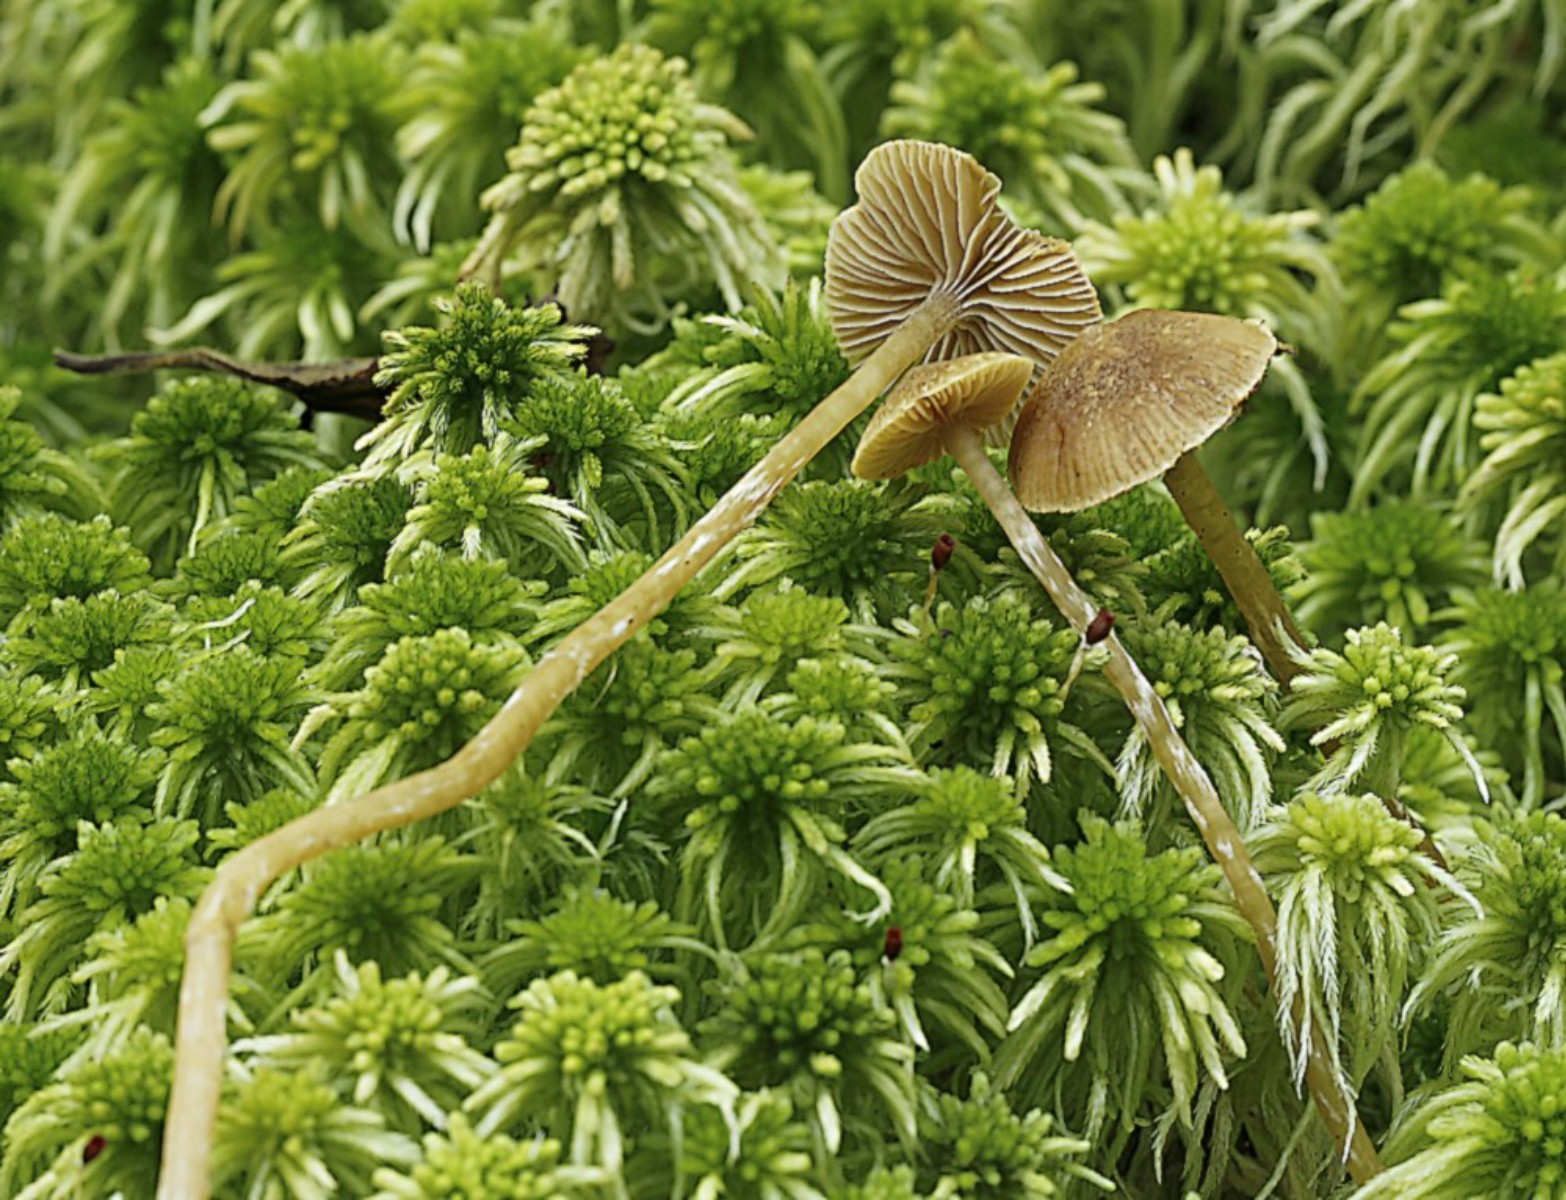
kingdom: Fungi
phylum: Basidiomycota
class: Agaricomycetes
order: Agaricales
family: Hymenogastraceae
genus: Galerina
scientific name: Galerina paludosa
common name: mose-hjelmhat
